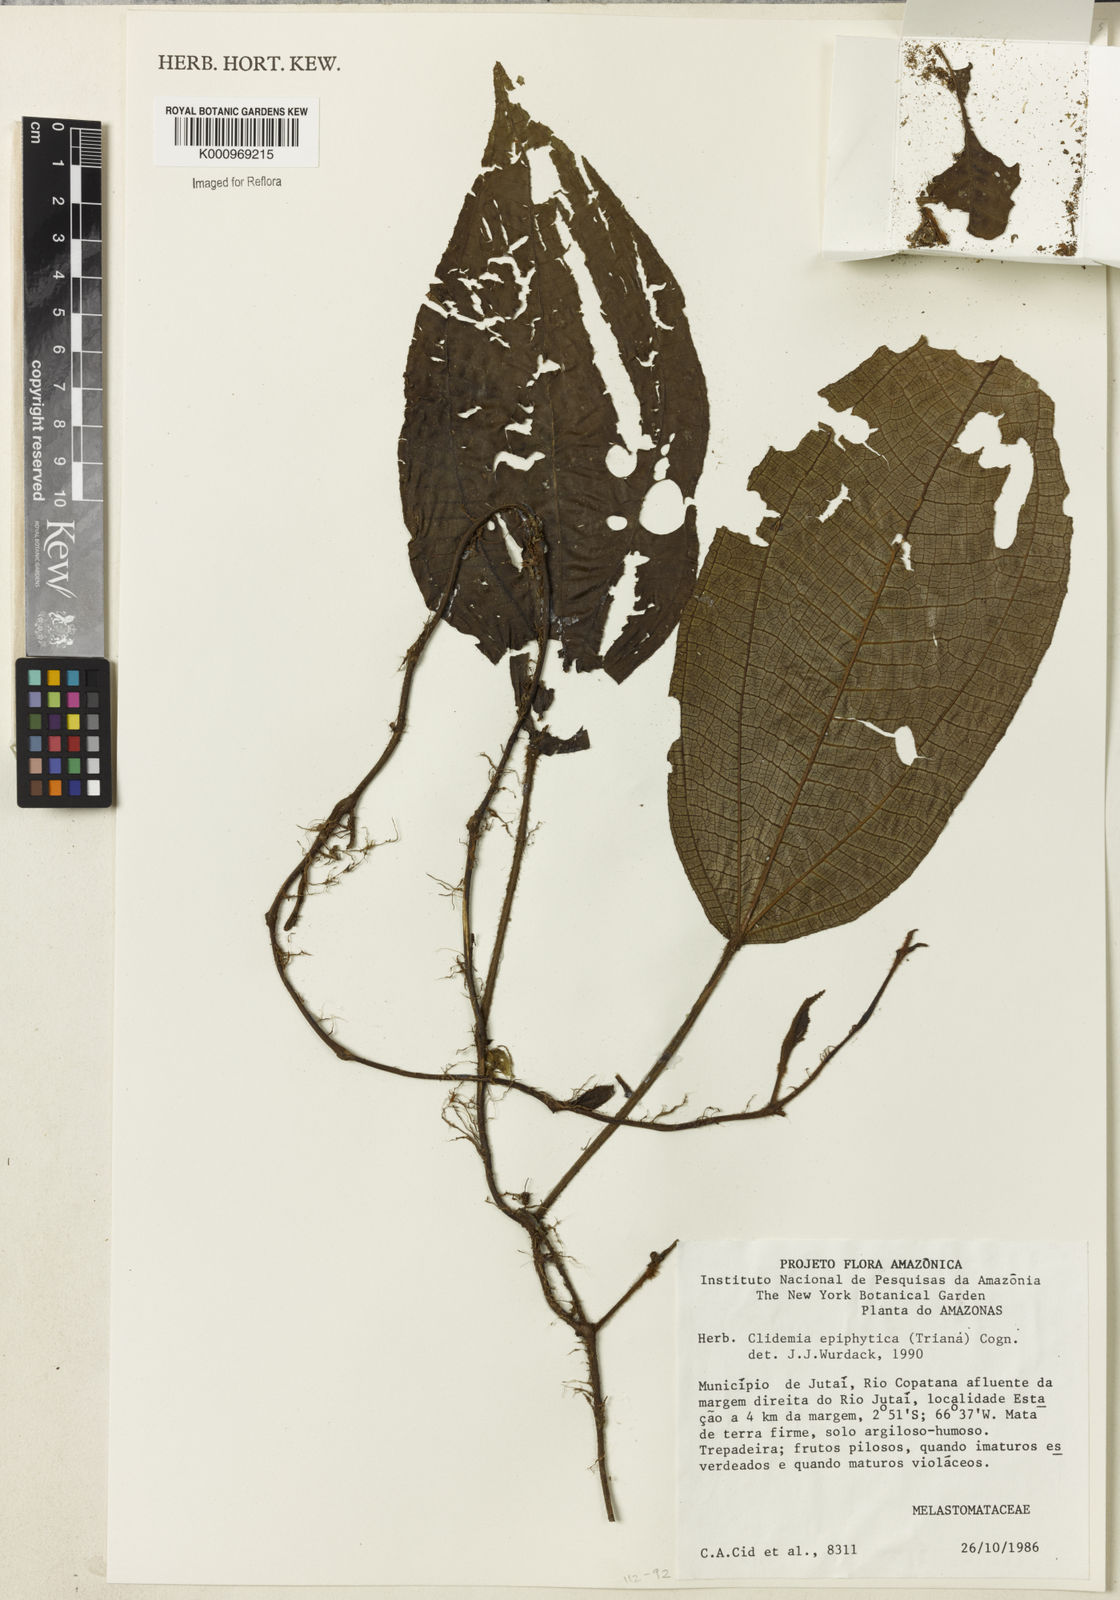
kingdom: Plantae
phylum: Tracheophyta
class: Magnoliopsida
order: Myrtales
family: Melastomataceae
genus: Miconia
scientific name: Miconia neoepiphytica
